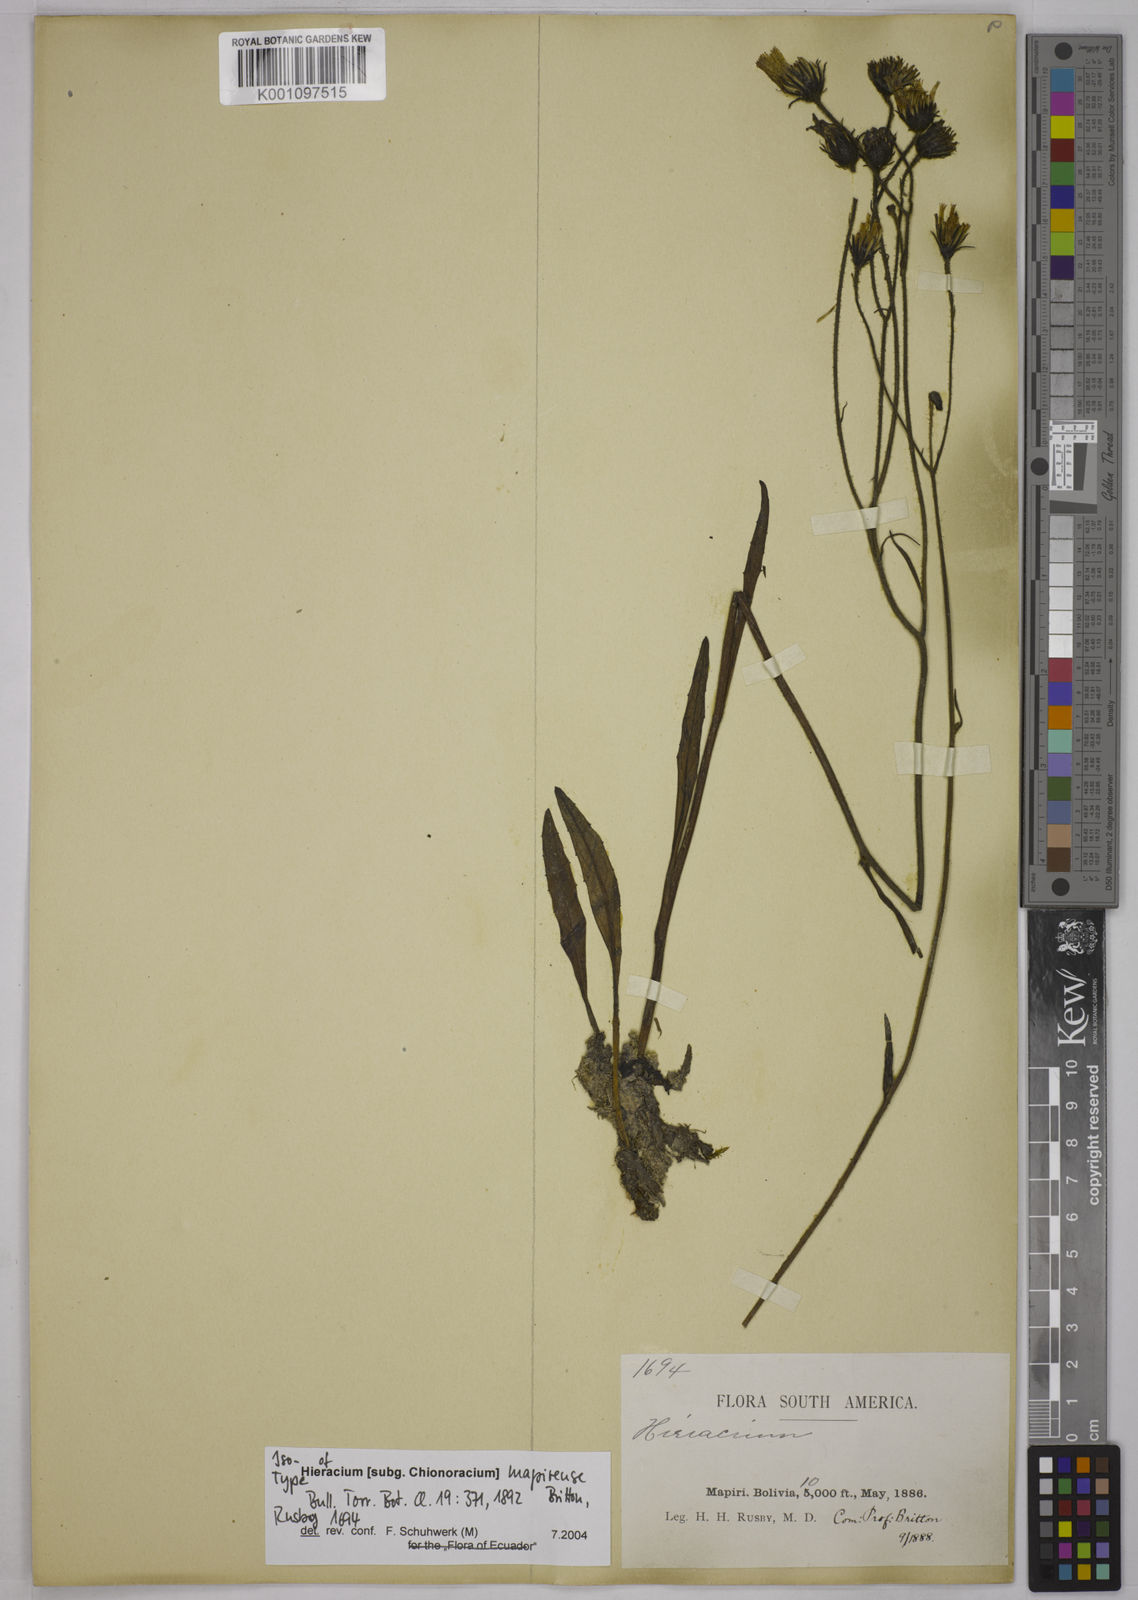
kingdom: Plantae
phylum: Tracheophyta
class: Magnoliopsida
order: Asterales
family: Asteraceae
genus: Hieracium
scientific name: Hieracium mapirense
